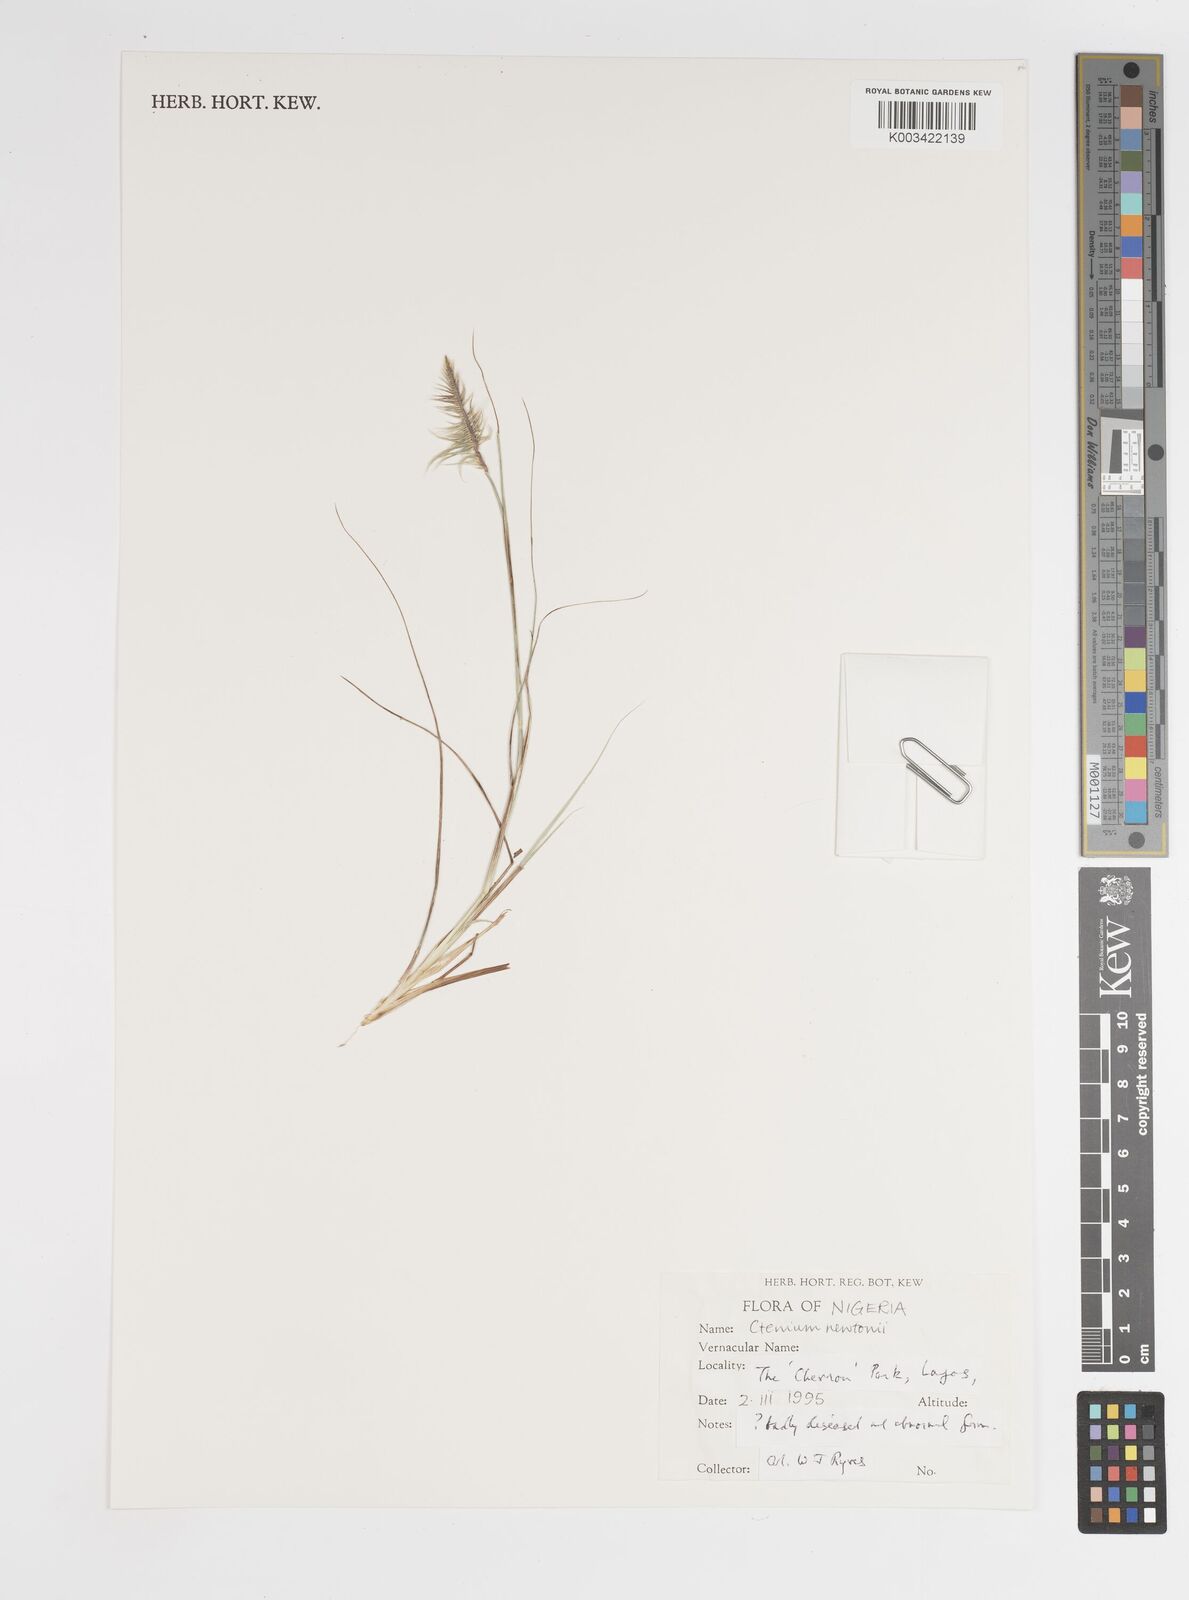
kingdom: Plantae
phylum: Tracheophyta
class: Liliopsida
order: Poales
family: Poaceae
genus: Ctenium
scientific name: Ctenium newtonii
